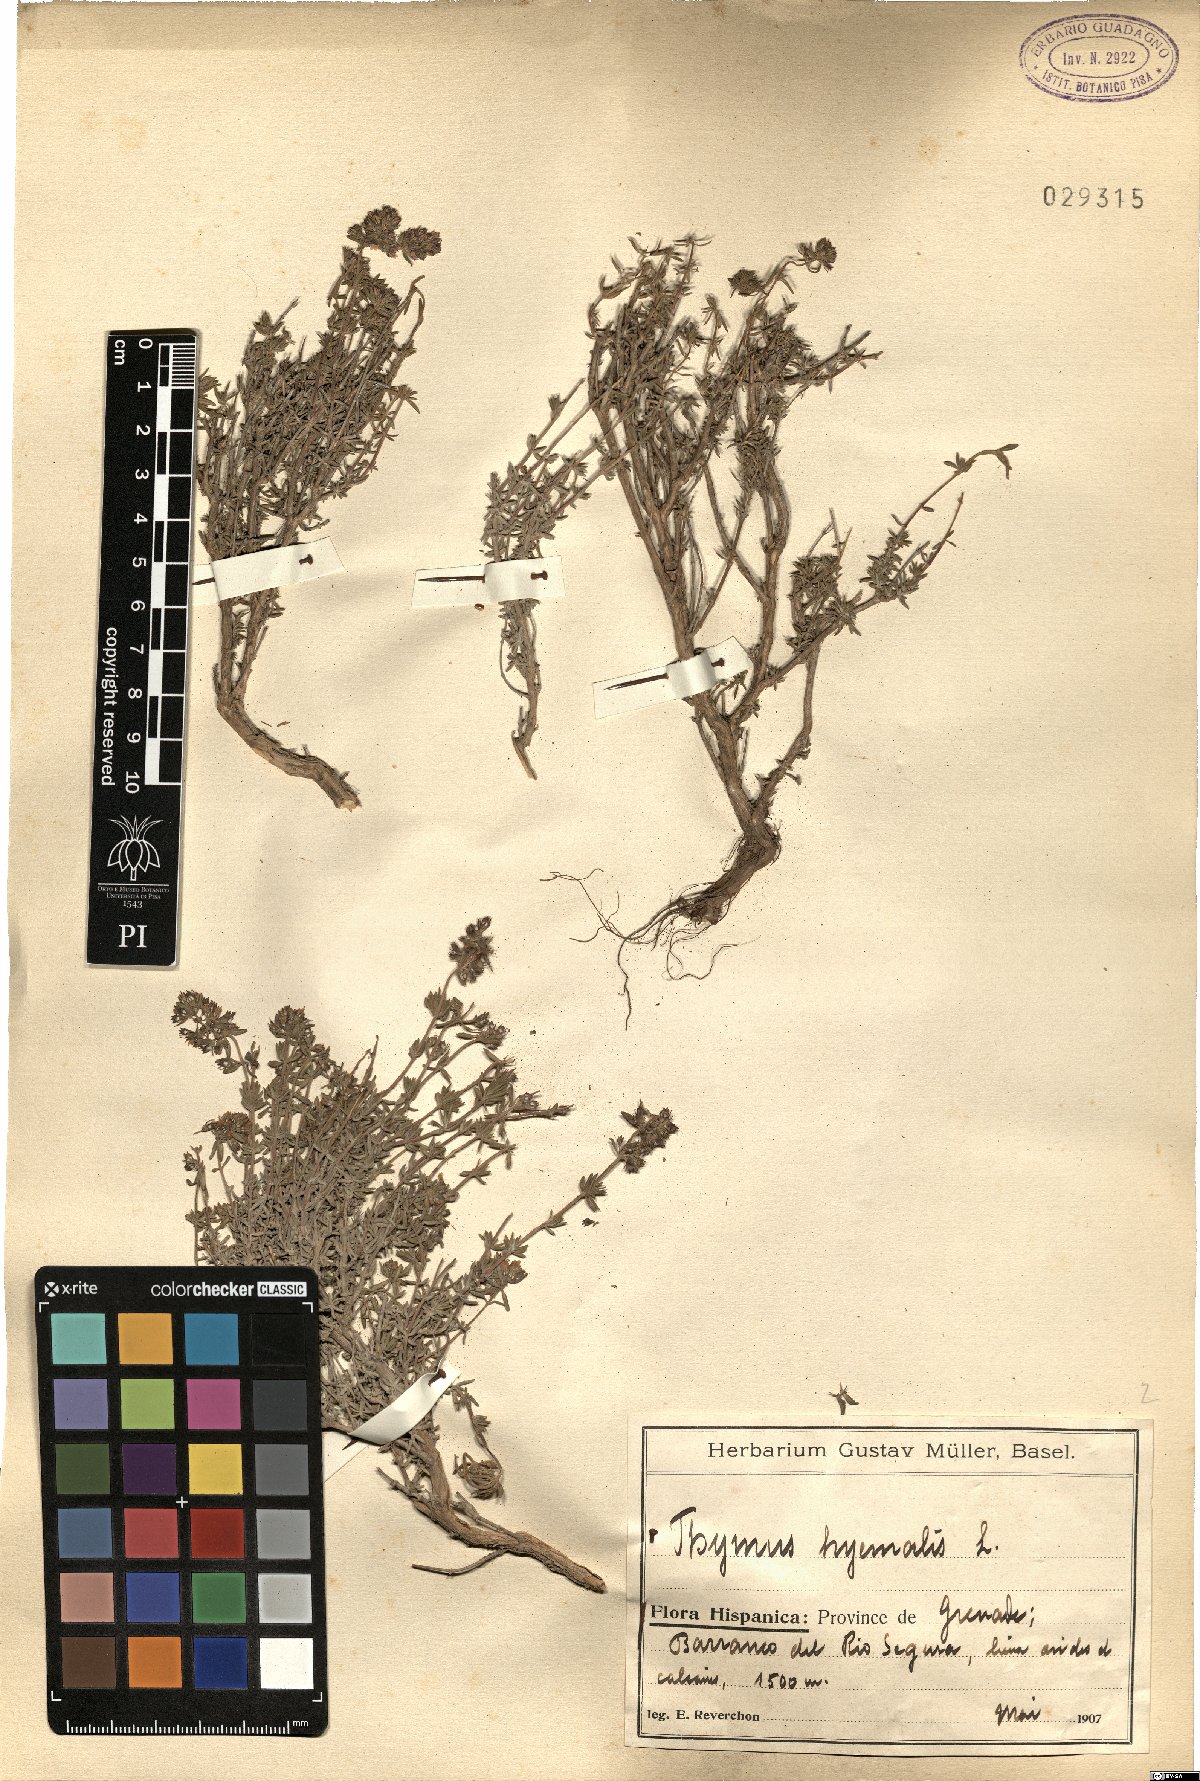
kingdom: Plantae
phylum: Tracheophyta
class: Magnoliopsida
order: Lamiales
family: Lamiaceae
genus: Thymus
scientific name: Thymus hyemalis
